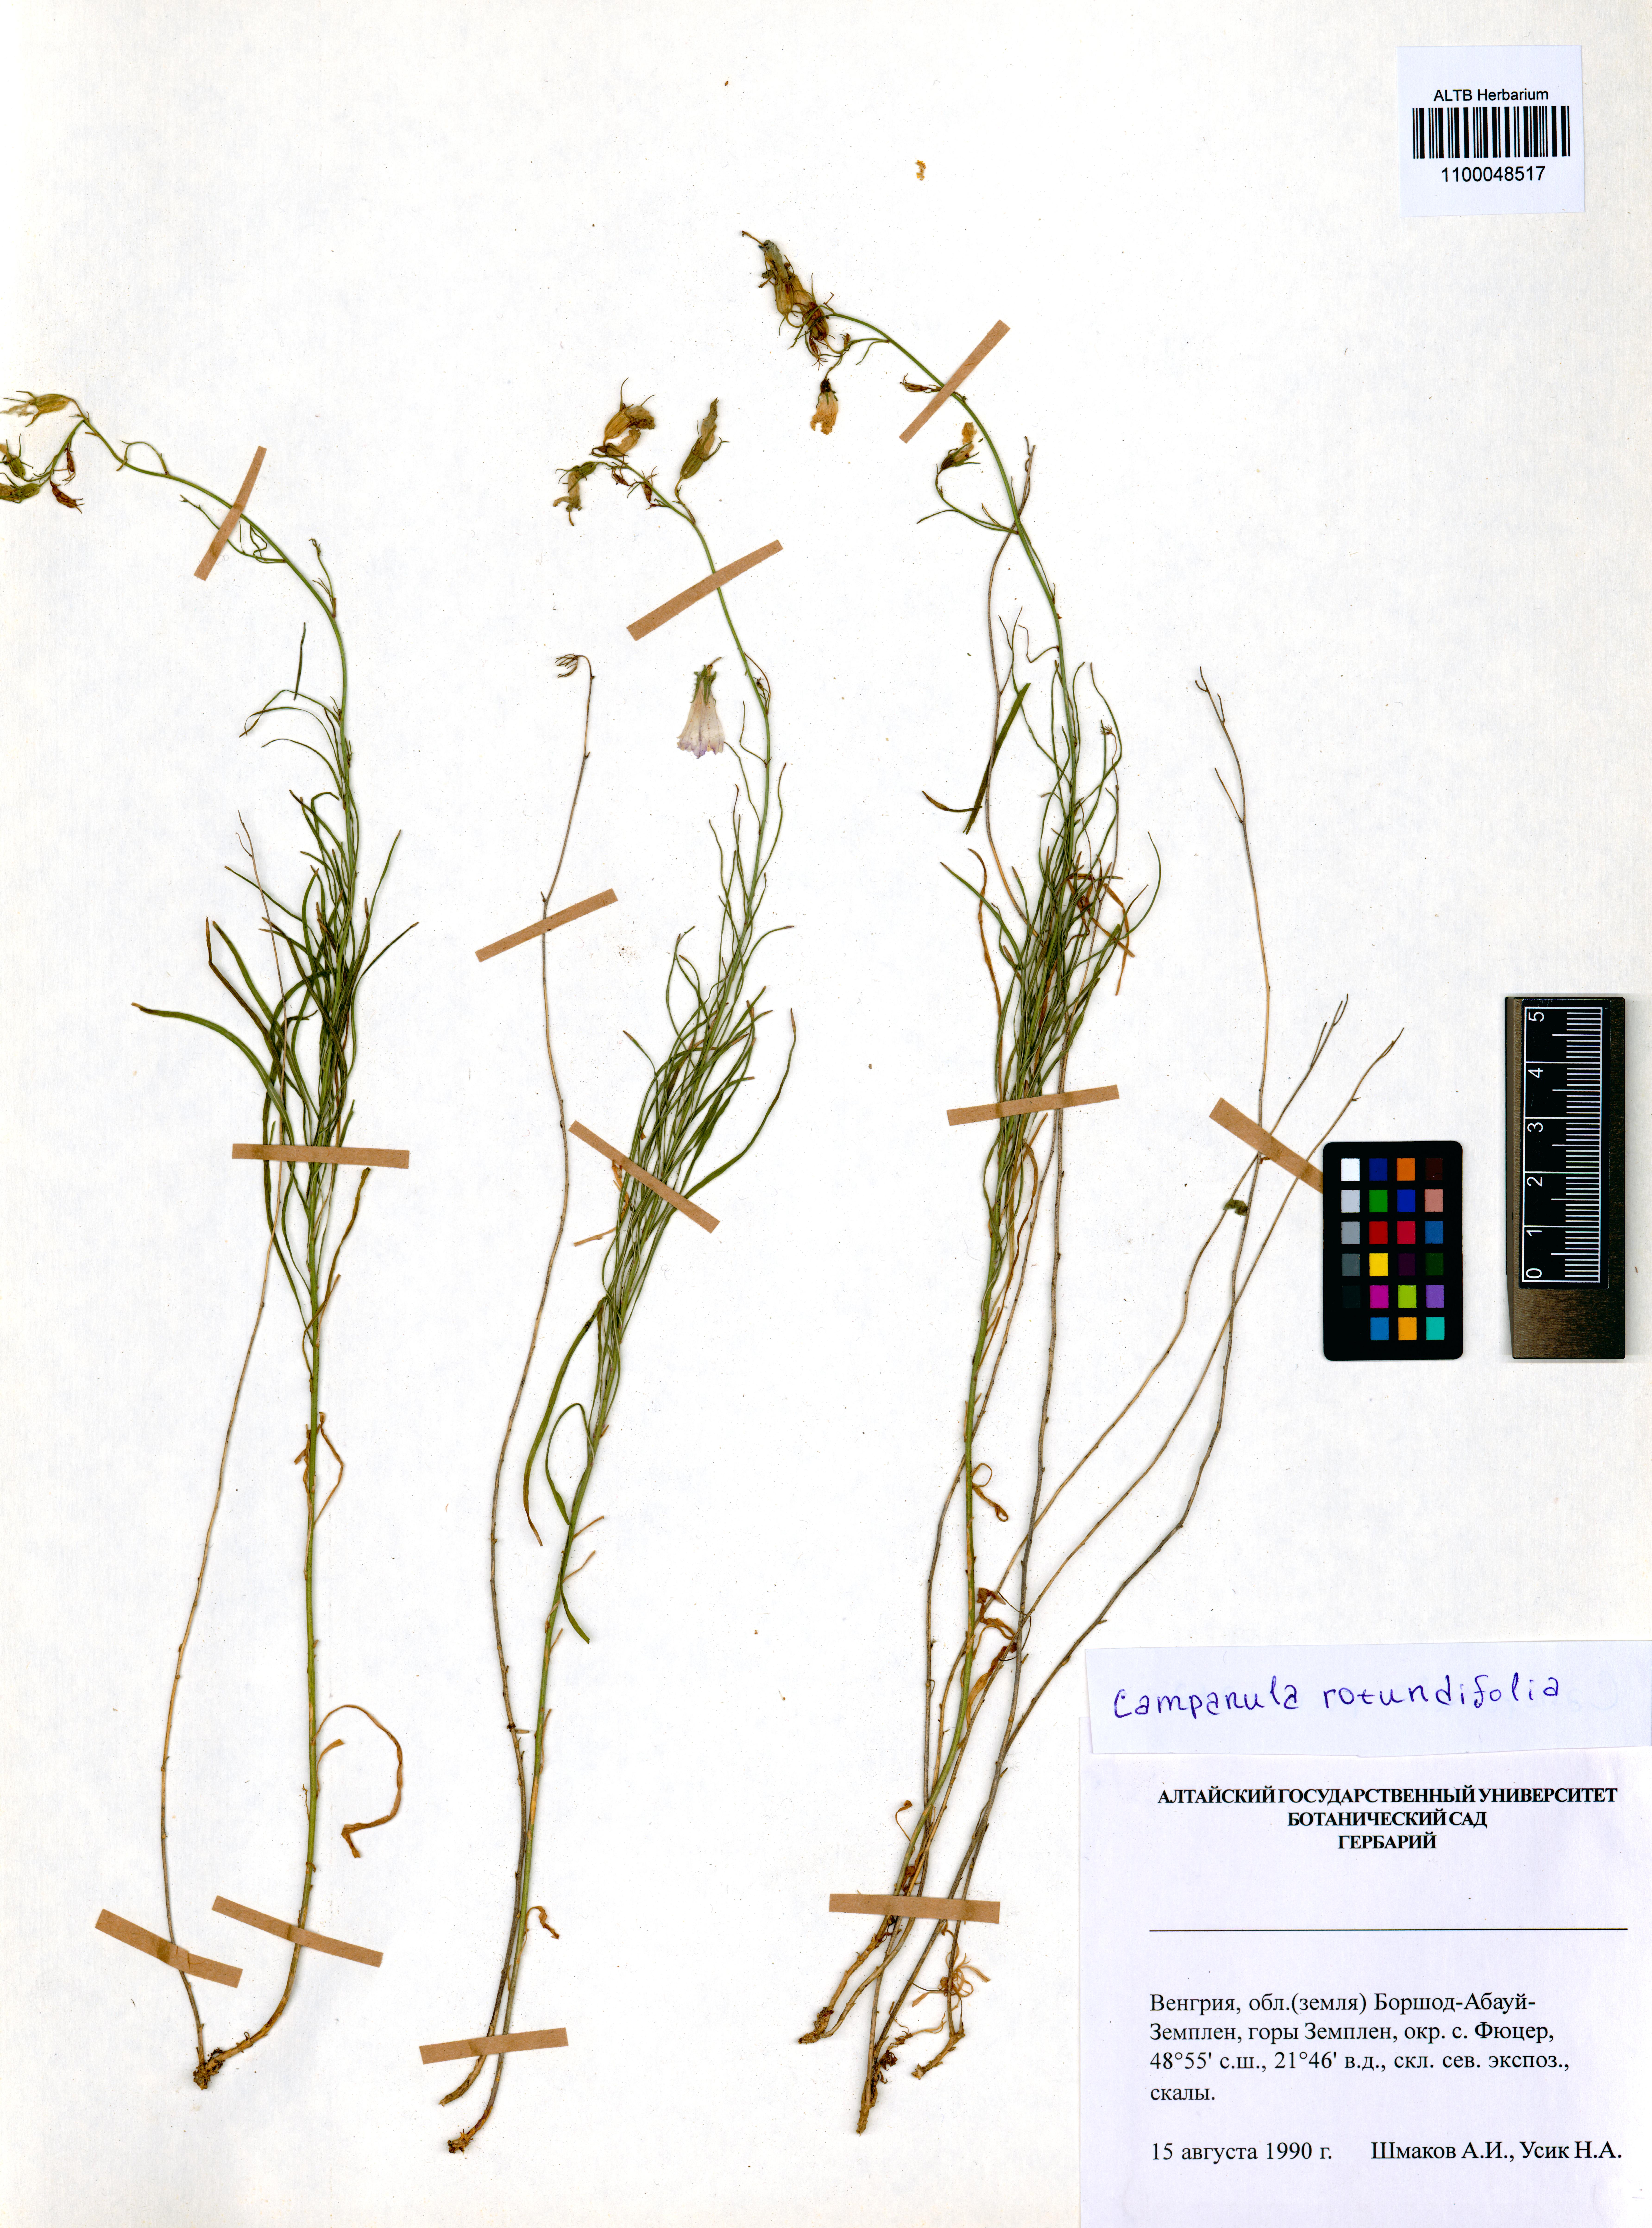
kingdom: Plantae
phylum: Tracheophyta
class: Magnoliopsida
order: Asterales
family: Campanulaceae
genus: Campanula
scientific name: Campanula rotundifolia
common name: Harebell
